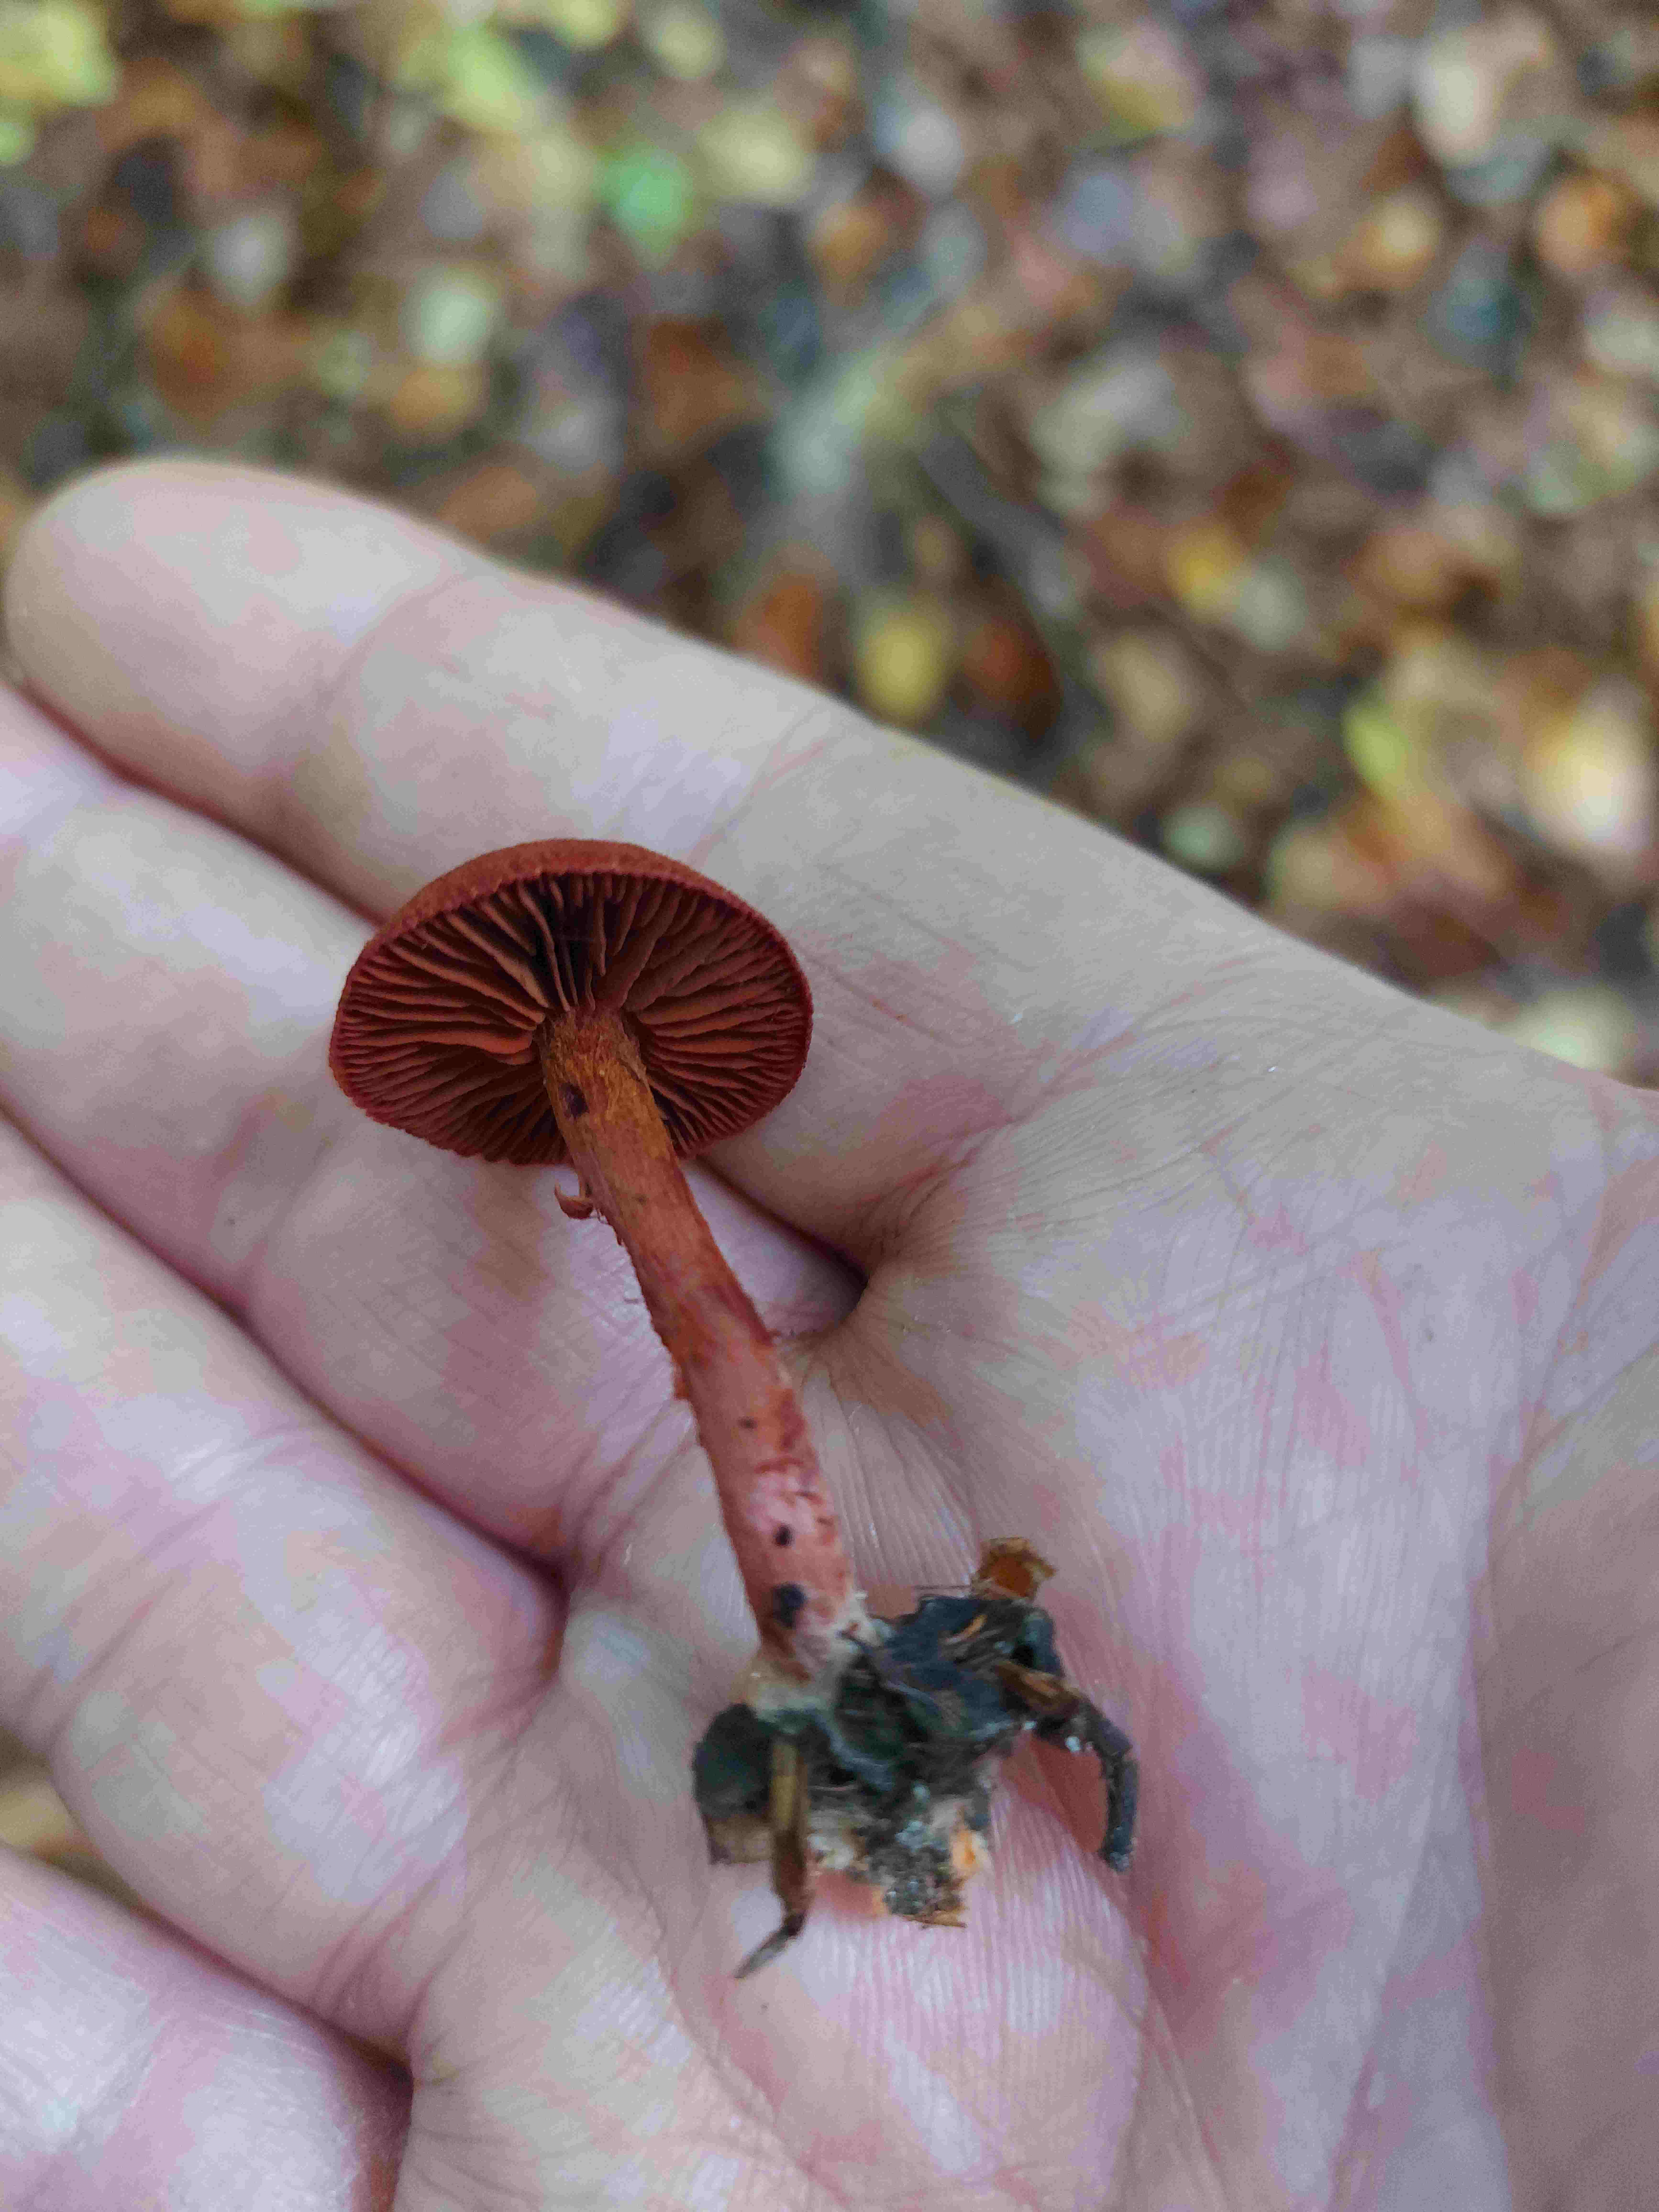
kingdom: Fungi
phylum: Basidiomycota
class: Agaricomycetes
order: Agaricales
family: Cortinariaceae
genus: Cortinarius
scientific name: Cortinarius sanguineus
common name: Bloodred webcap
